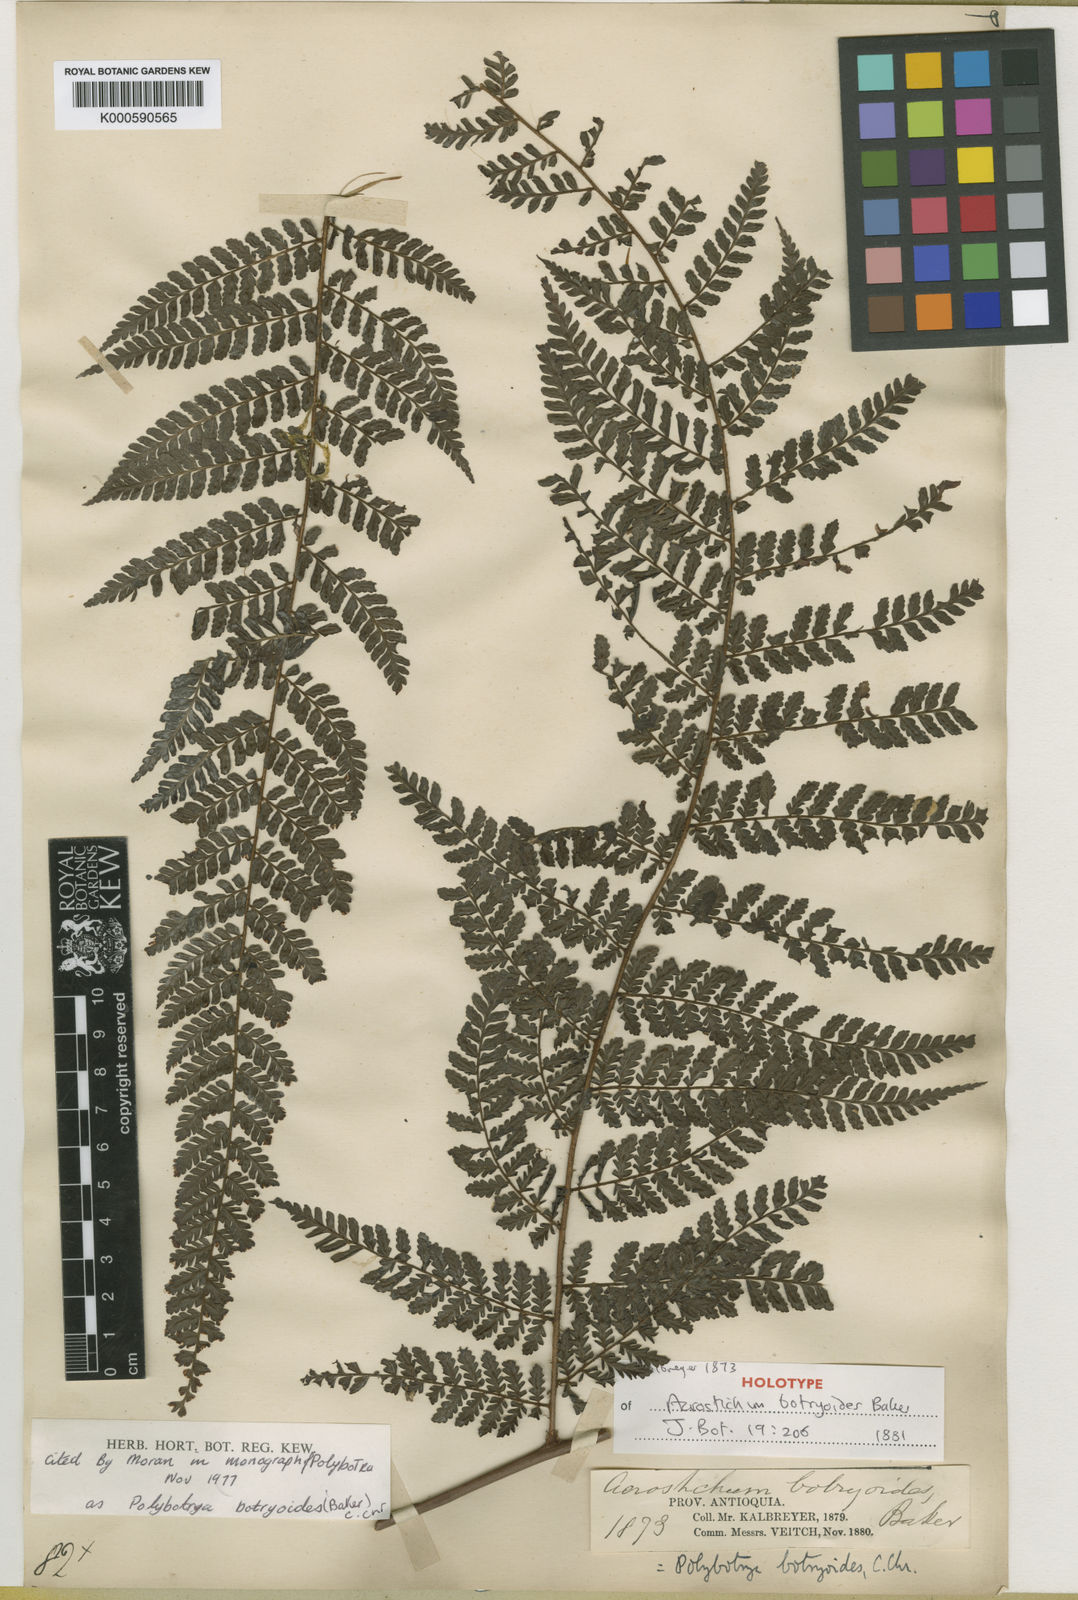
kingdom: Plantae
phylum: Tracheophyta
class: Polypodiopsida
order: Polypodiales
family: Dryopteridaceae
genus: Polybotrya
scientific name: Polybotrya botryoides
